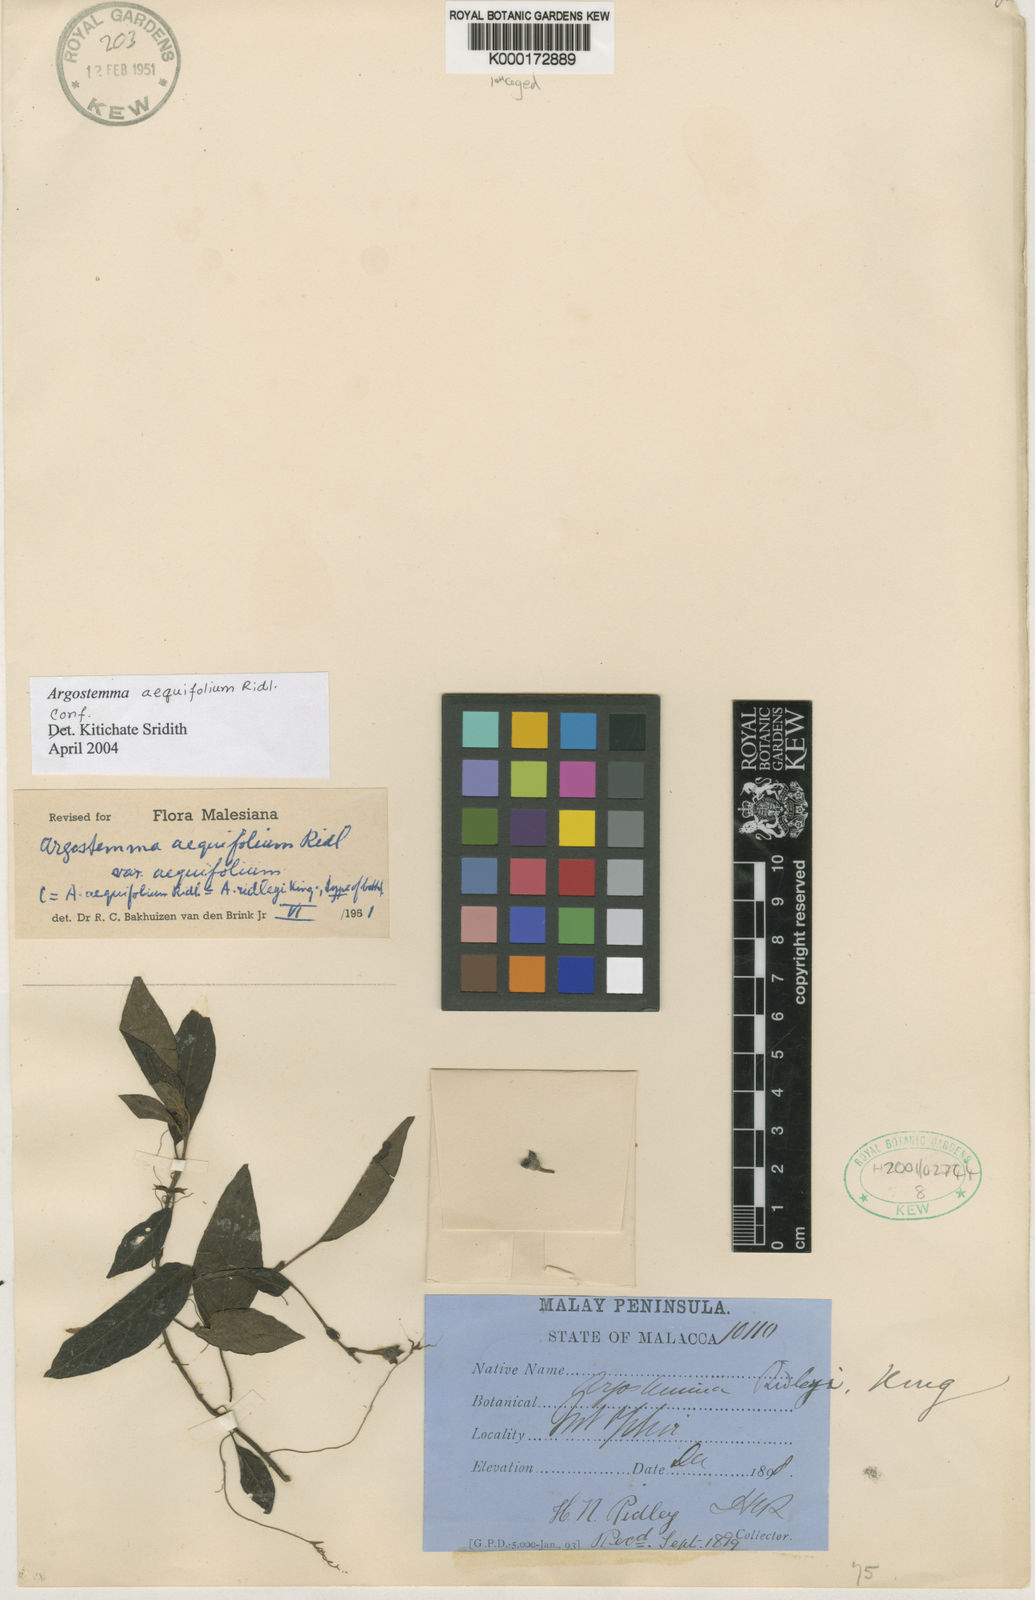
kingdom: Plantae
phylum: Tracheophyta
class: Magnoliopsida
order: Gentianales
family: Rubiaceae
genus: Argostemma
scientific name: Argostemma aequifolium
